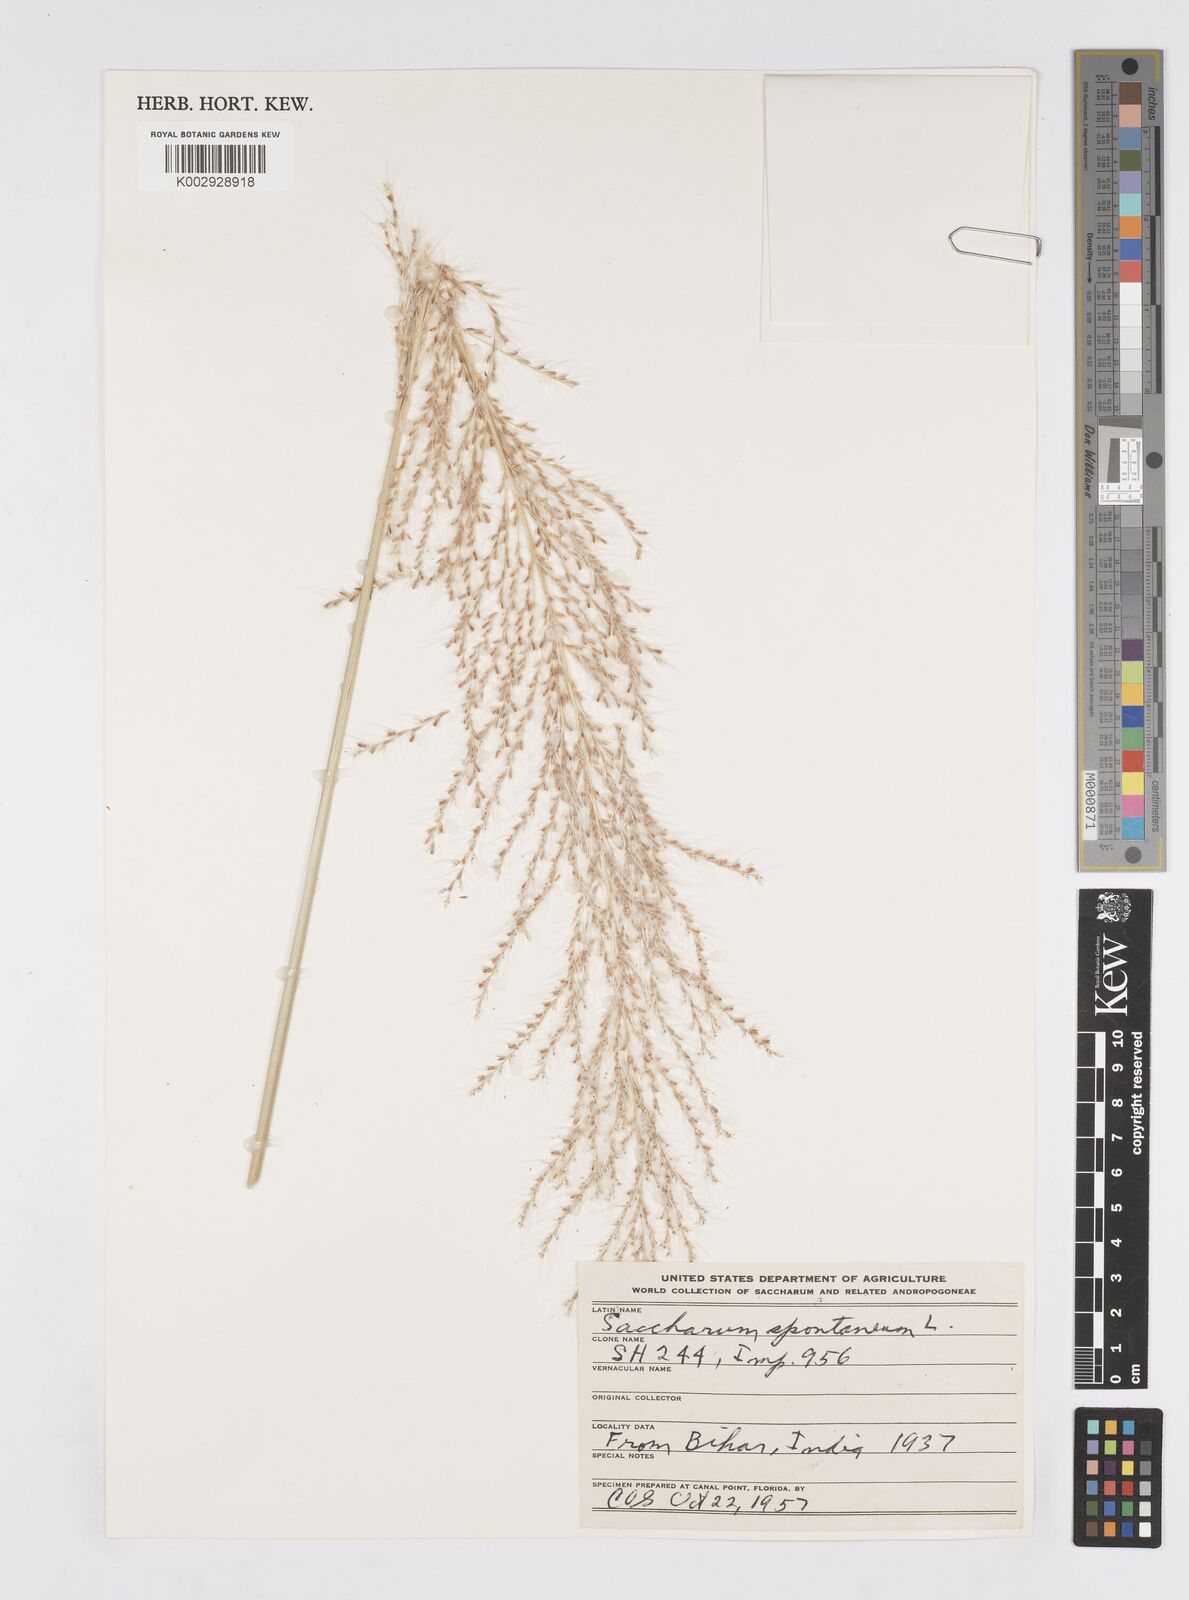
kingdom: Plantae
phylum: Tracheophyta
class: Liliopsida
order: Poales
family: Poaceae
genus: Saccharum
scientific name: Saccharum spontaneum
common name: Wild sugarcane
